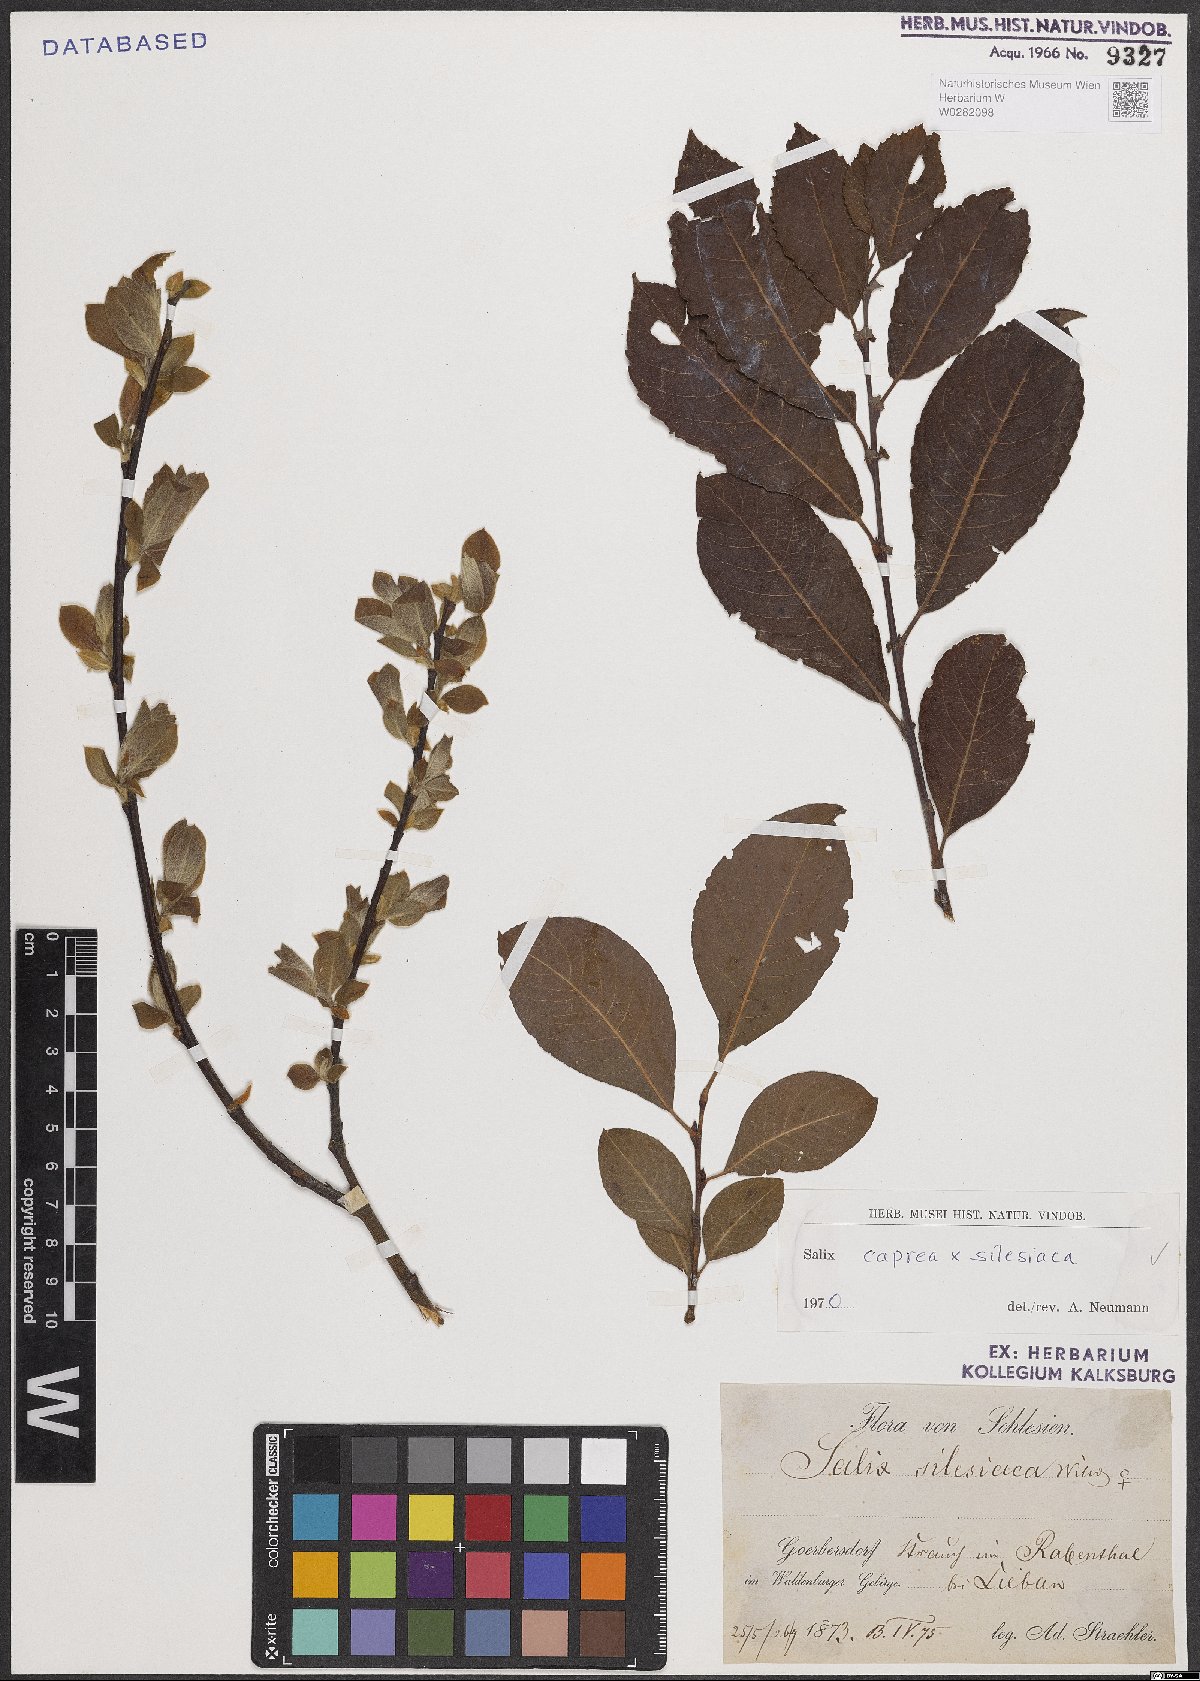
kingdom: Plantae
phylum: Tracheophyta
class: Magnoliopsida
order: Malpighiales
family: Salicaceae
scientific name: Salicaceae
